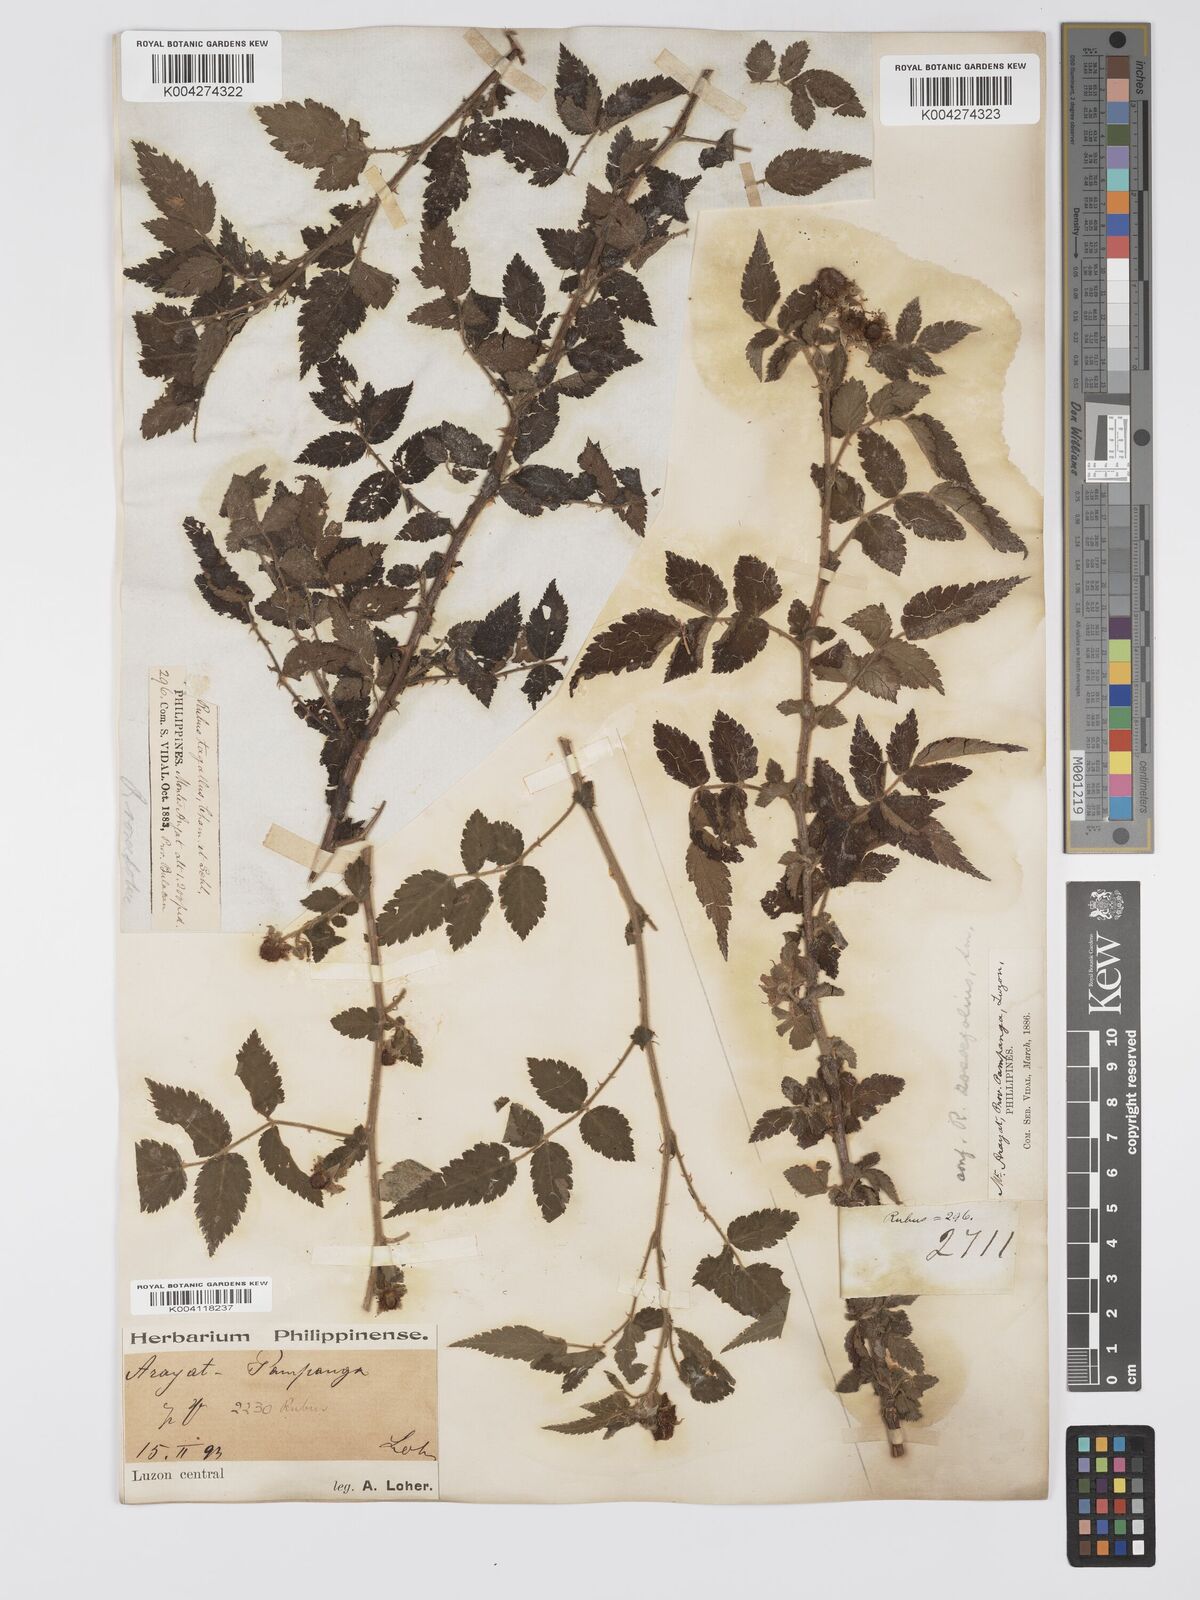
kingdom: Plantae
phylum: Tracheophyta
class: Magnoliopsida
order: Rosales
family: Rosaceae
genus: Rubus
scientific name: Rubus
